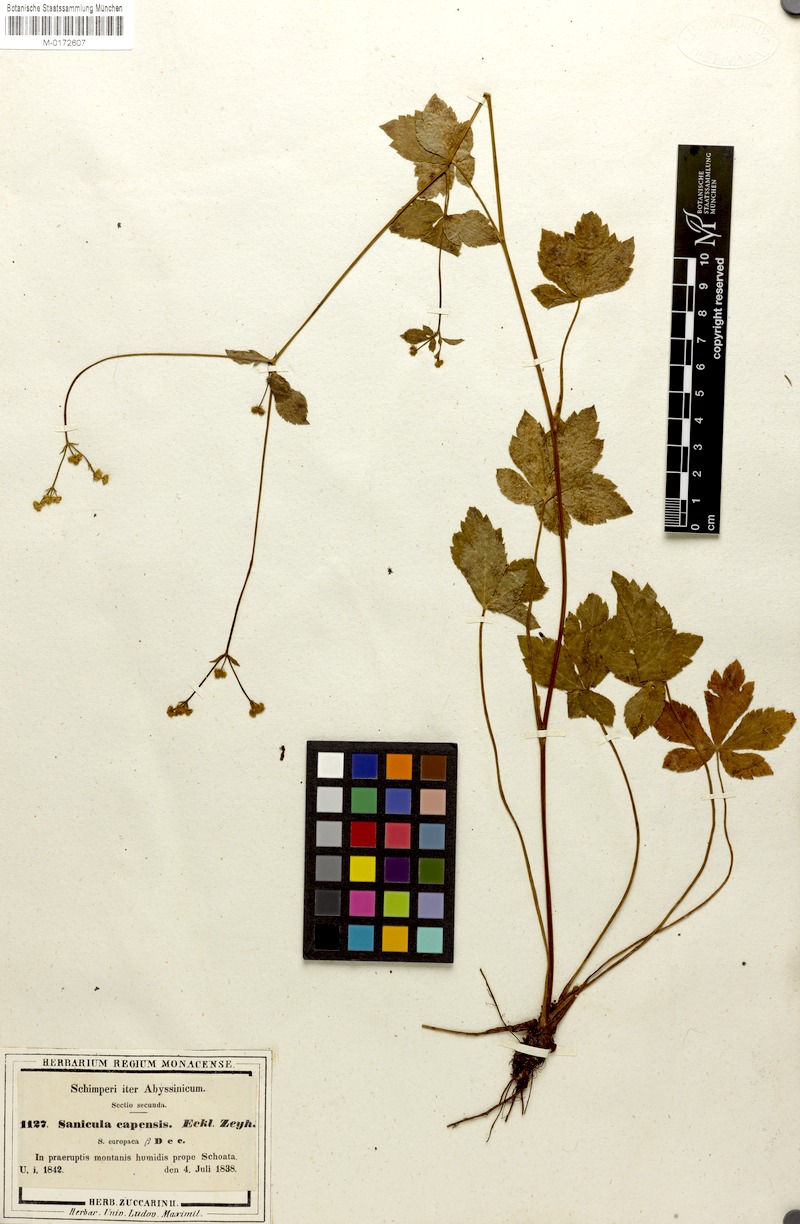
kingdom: Plantae
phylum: Tracheophyta
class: Magnoliopsida
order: Apiales
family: Apiaceae
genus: Sanicula
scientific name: Sanicula elata
